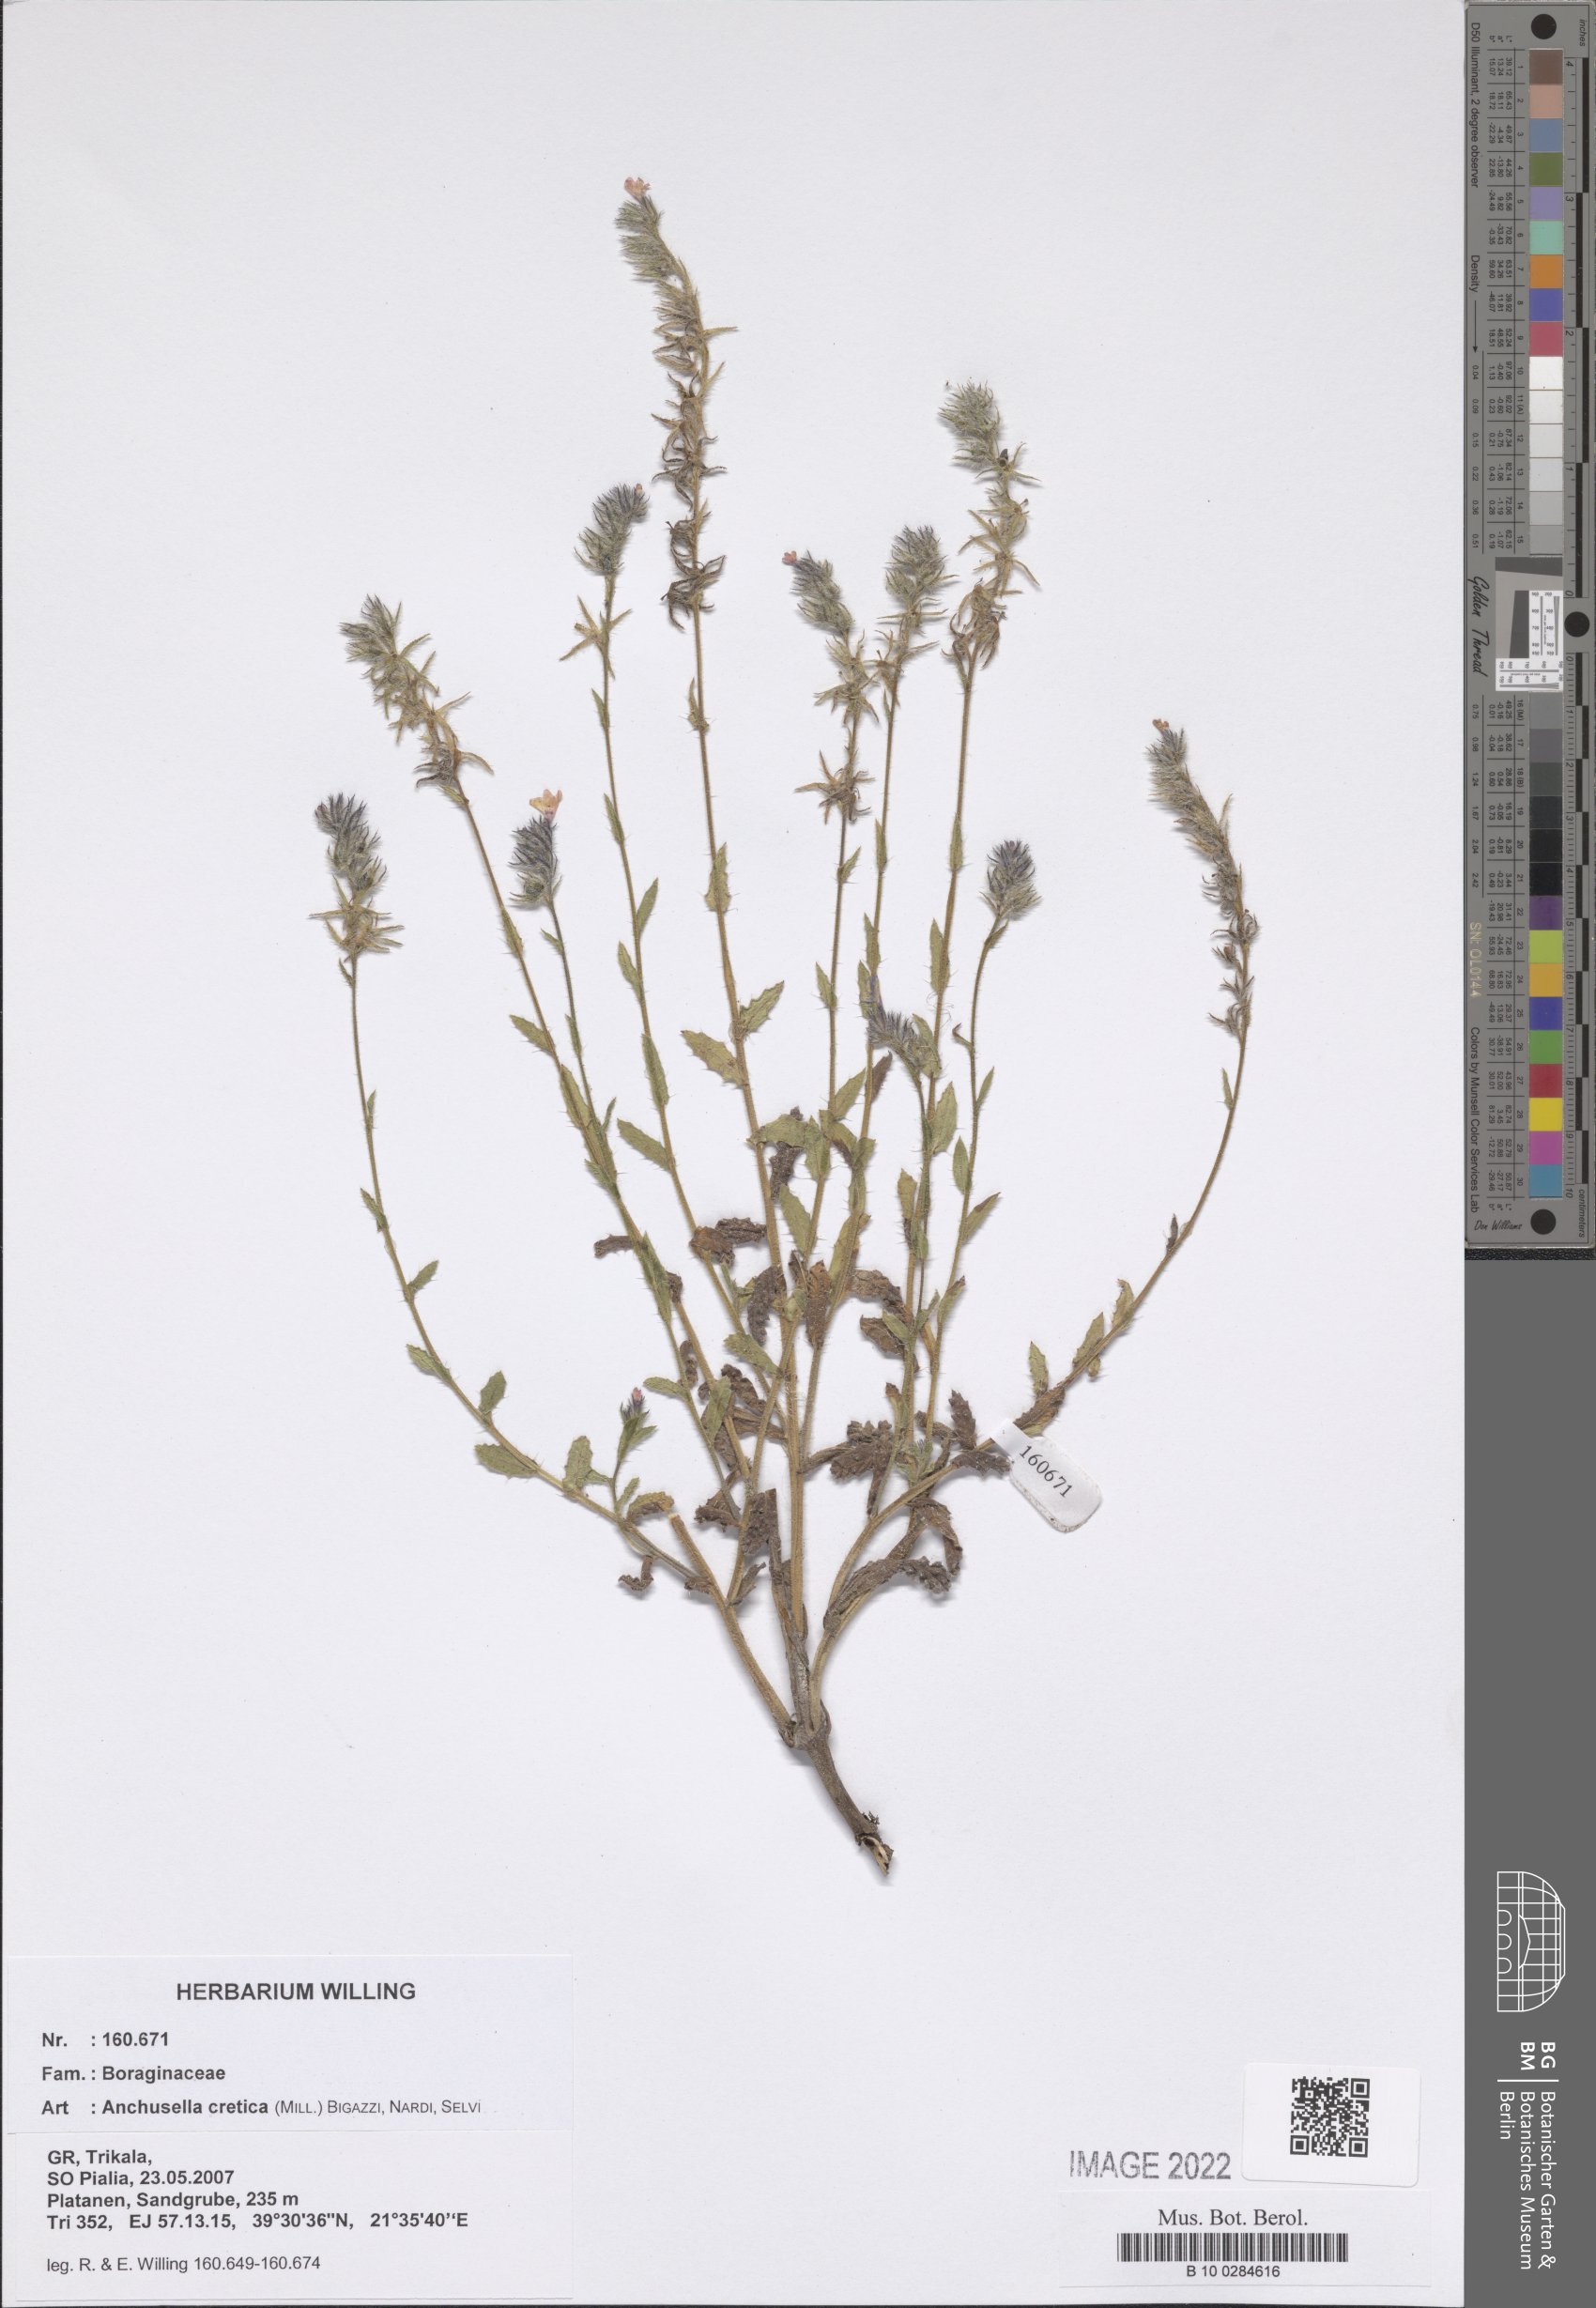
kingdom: Plantae
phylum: Tracheophyta
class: Magnoliopsida
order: Boraginales
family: Boraginaceae
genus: Lycopsis
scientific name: Lycopsis arvensis
